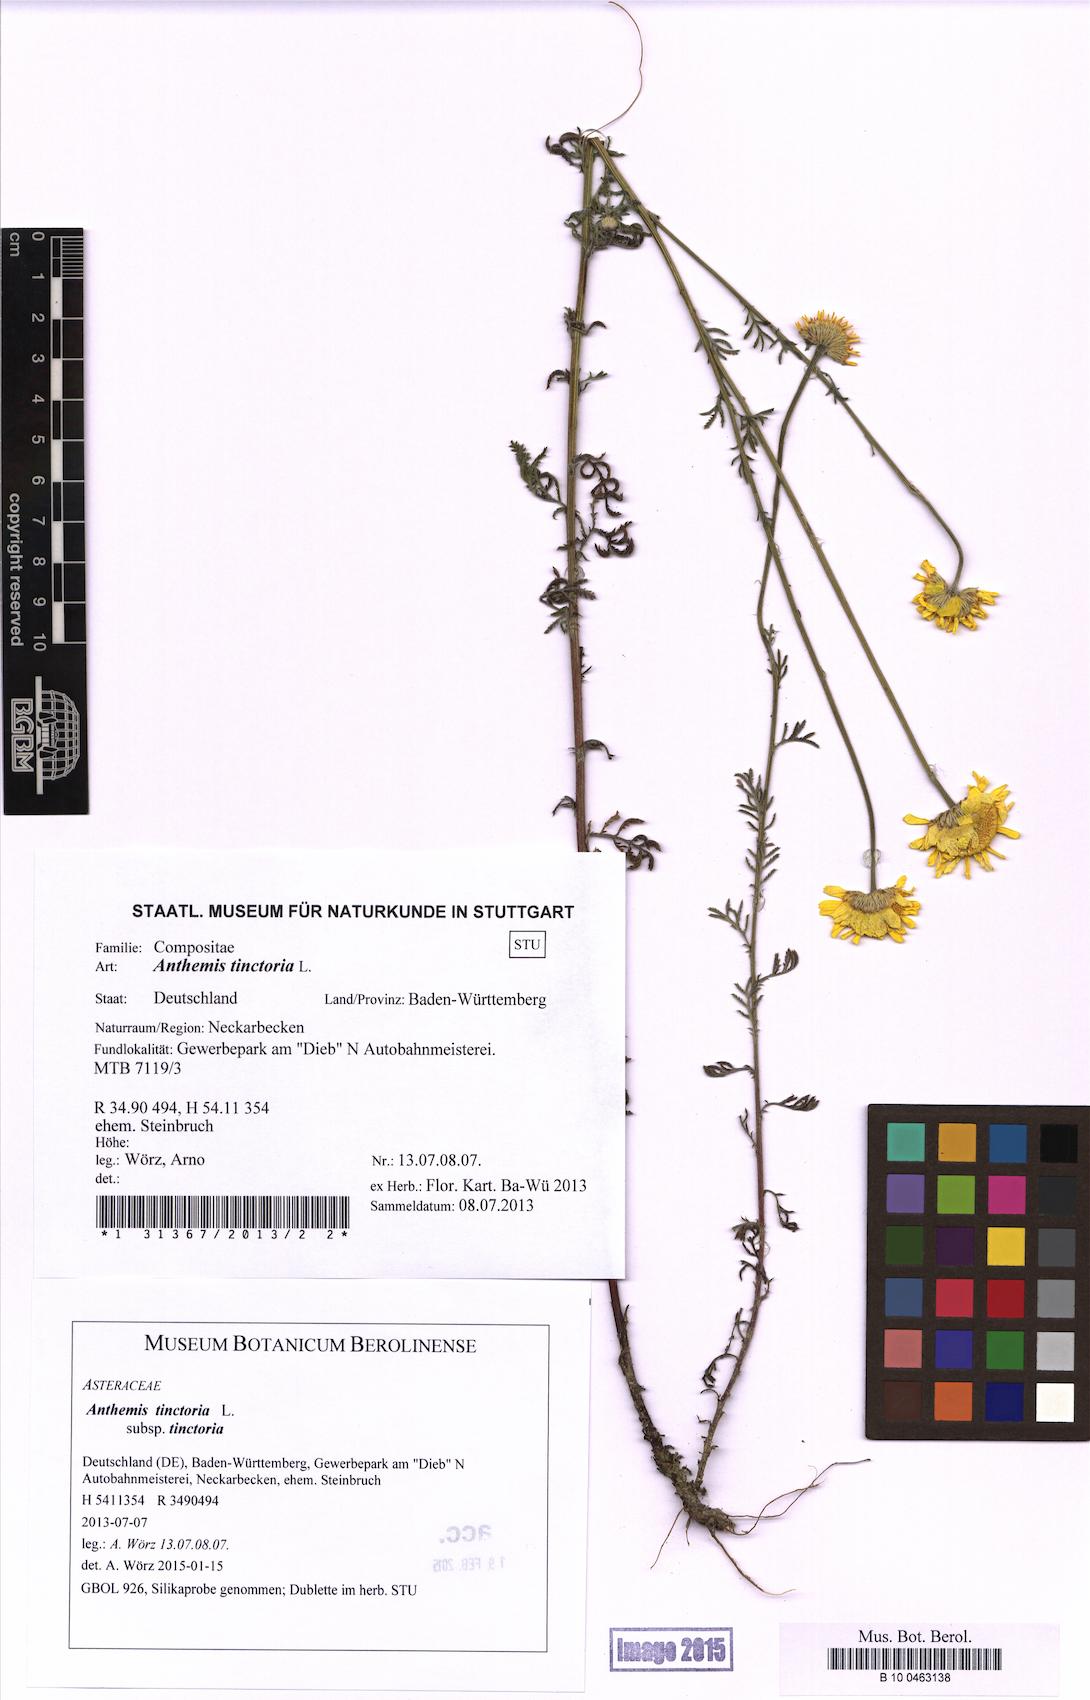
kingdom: Plantae
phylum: Tracheophyta
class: Magnoliopsida
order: Asterales
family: Asteraceae
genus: Cota
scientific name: Cota tinctoria
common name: Golden chamomile
